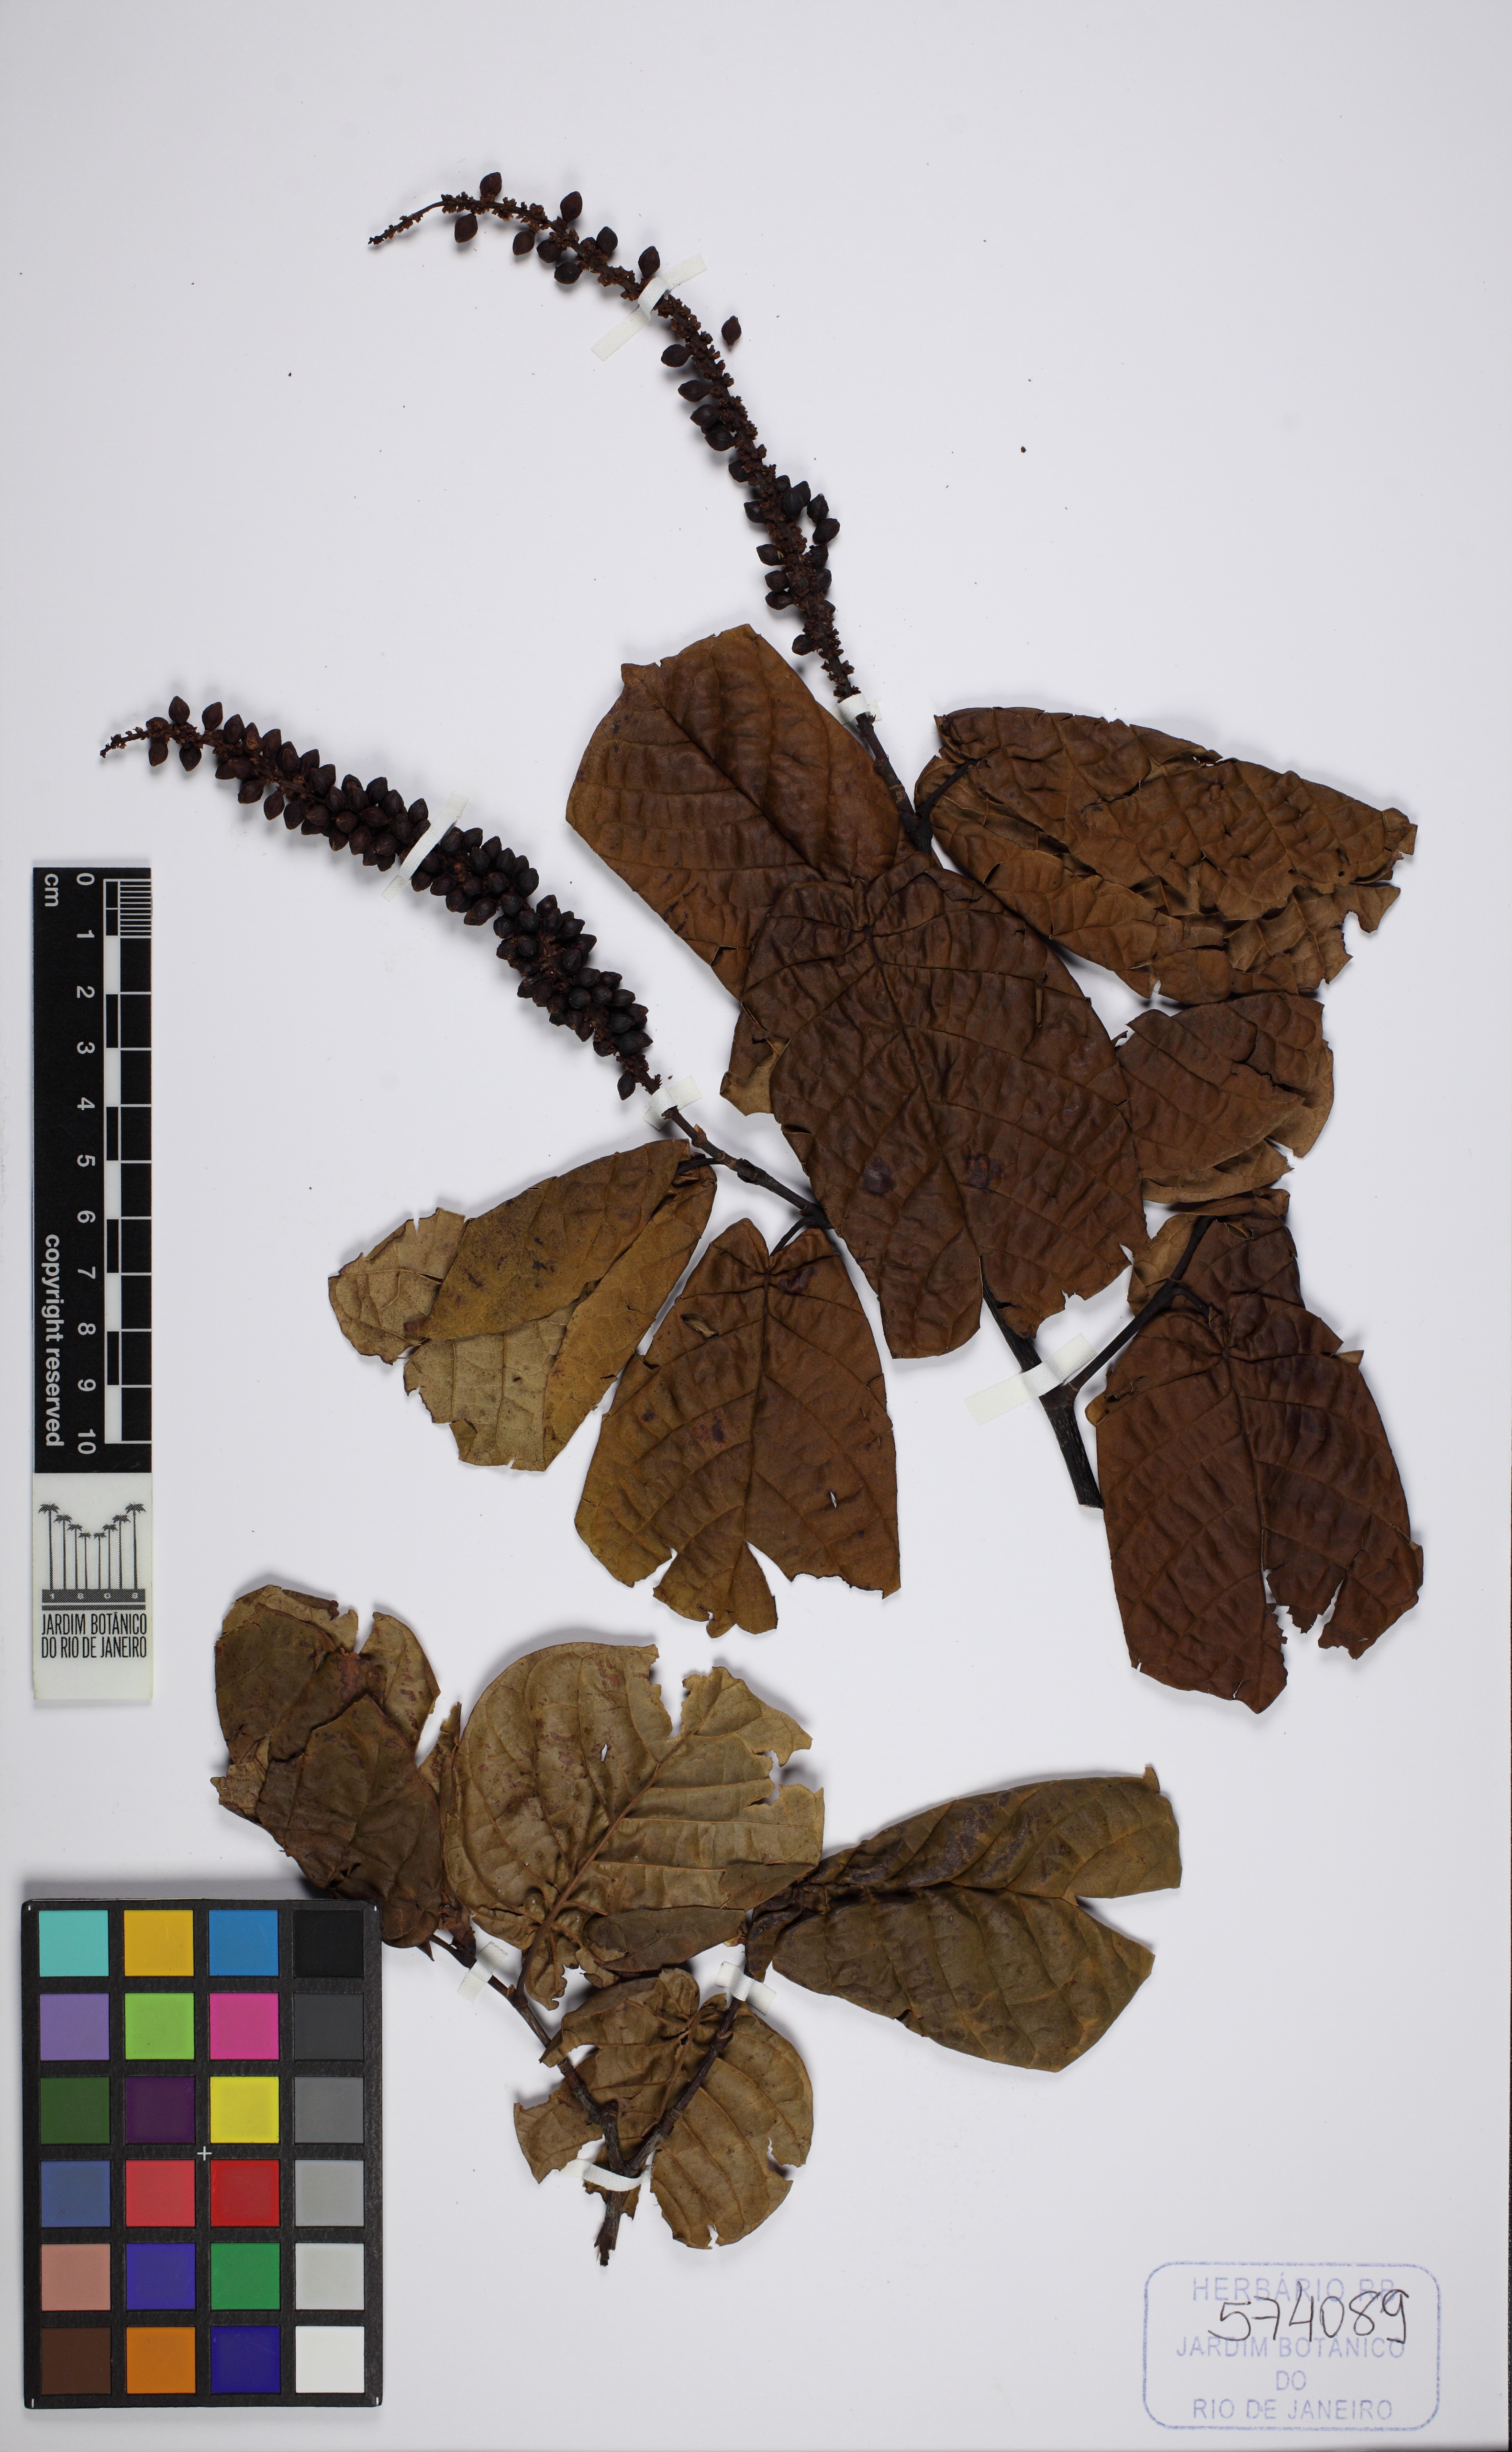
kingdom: Plantae
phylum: Tracheophyta
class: Magnoliopsida
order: Caryophyllales
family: Polygonaceae
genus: Coccoloba
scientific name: Coccoloba
